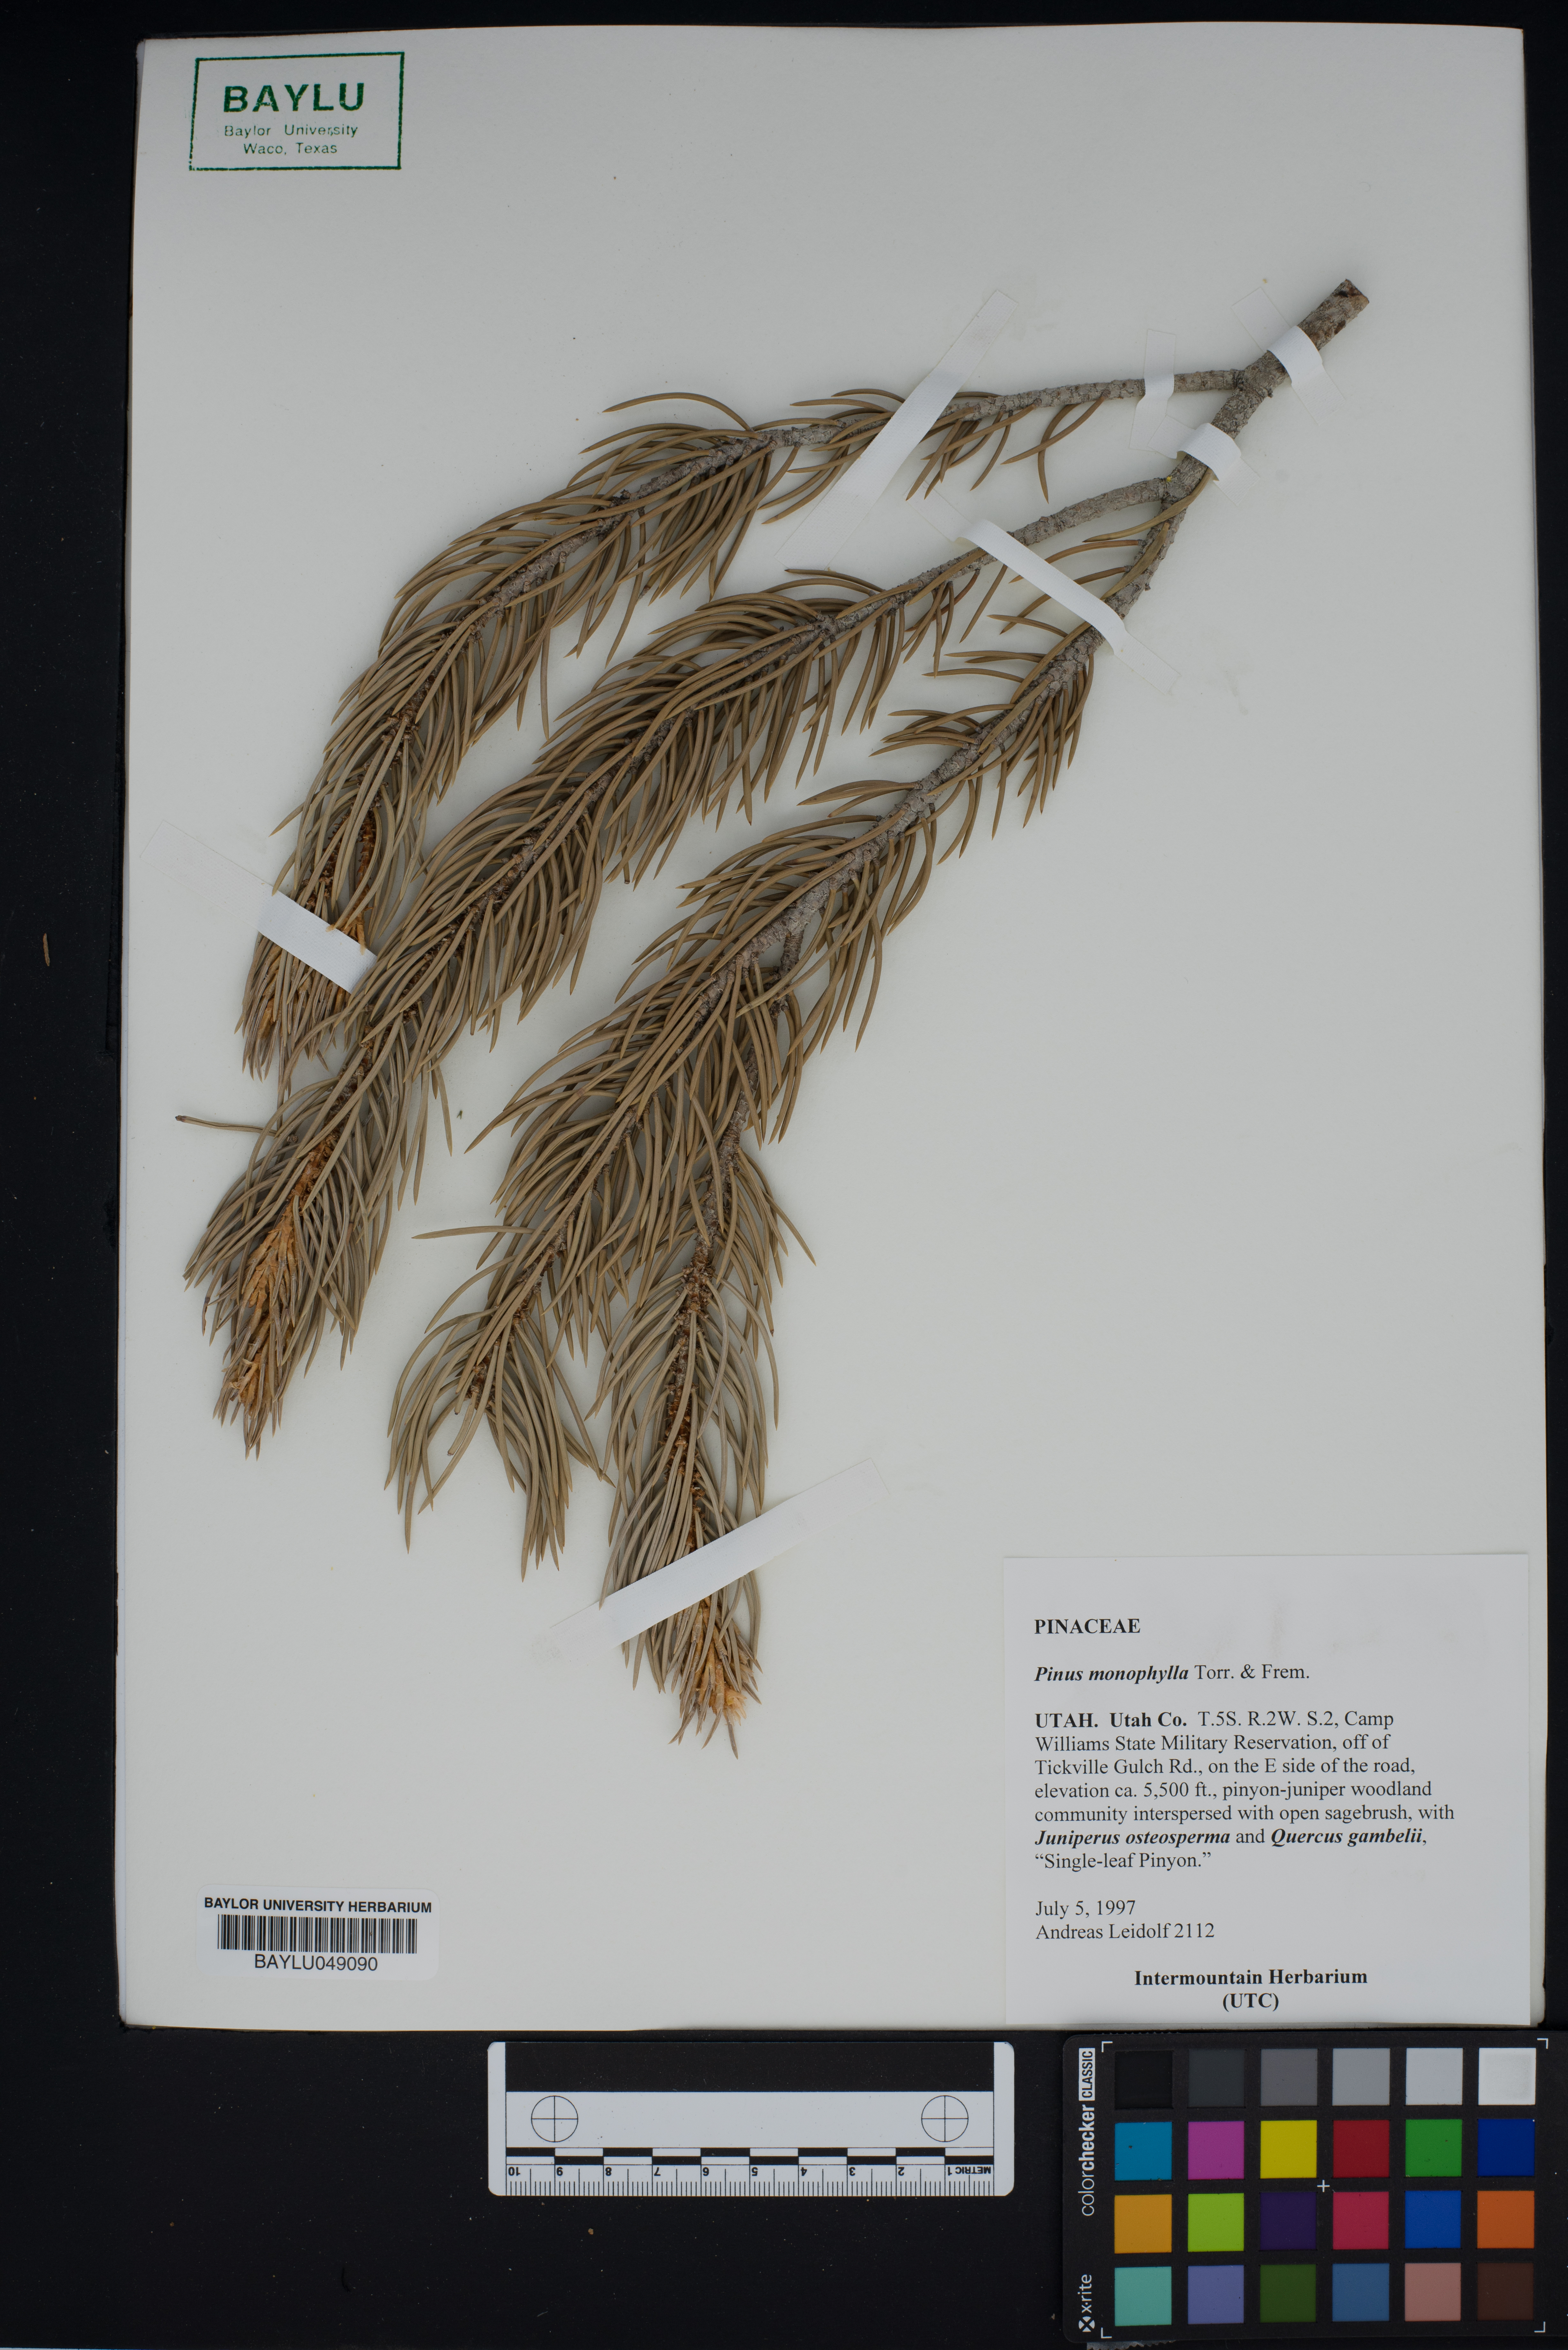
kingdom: Plantae
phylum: Tracheophyta
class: Pinopsida
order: Pinales
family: Pinaceae
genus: Pinus
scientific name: Pinus monophylla
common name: One-leaved nut pine
